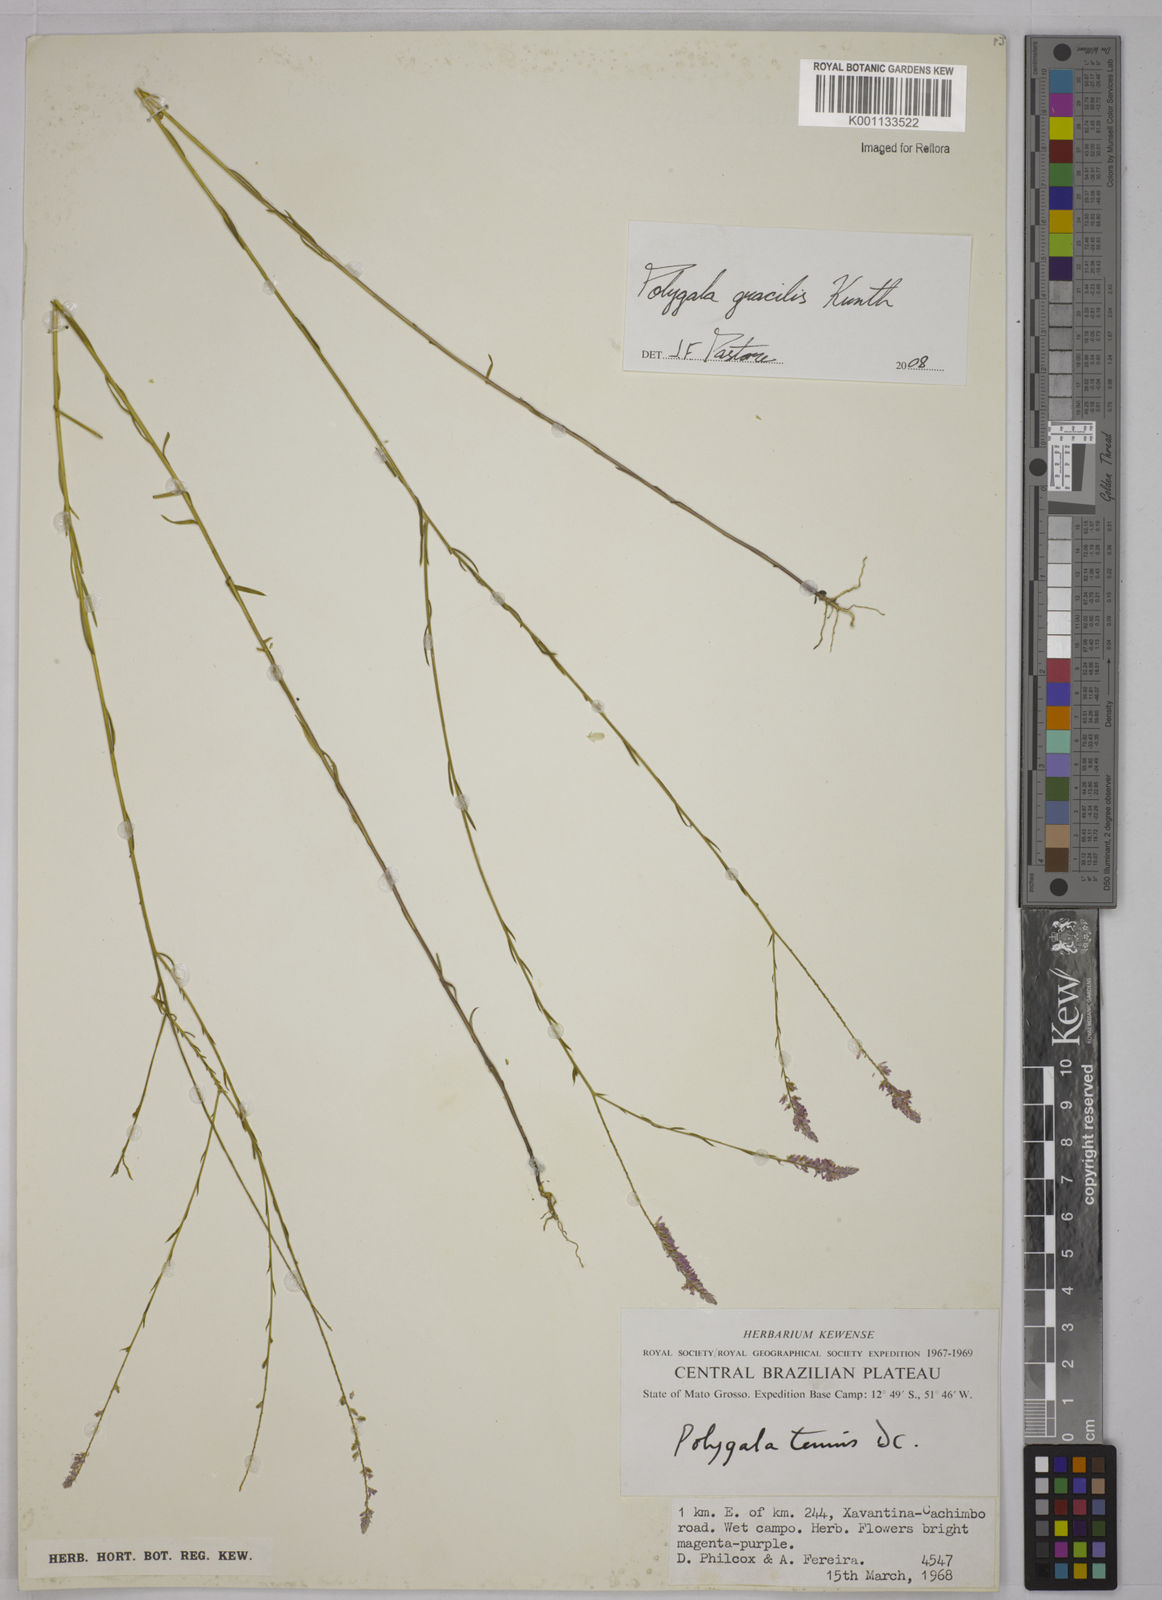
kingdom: Plantae
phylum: Tracheophyta
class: Magnoliopsida
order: Fabales
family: Polygalaceae
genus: Polygala
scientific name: Polygala gracilis
